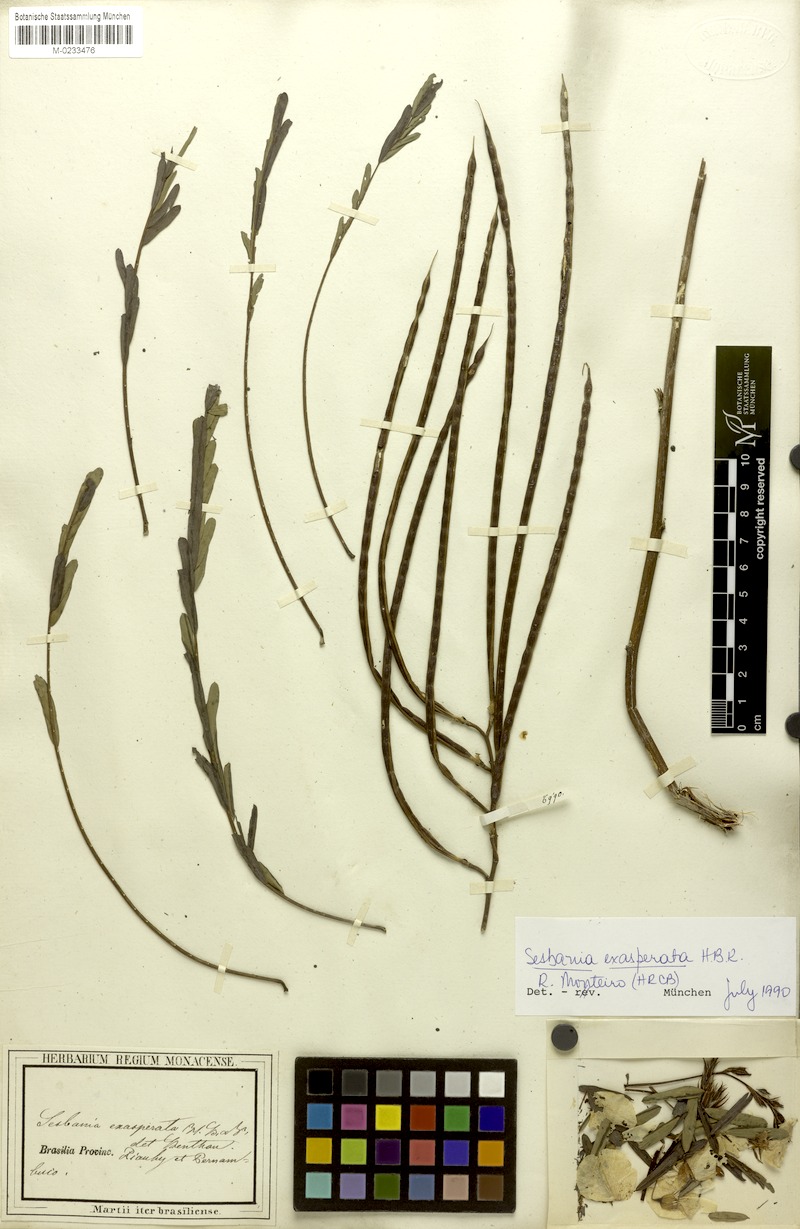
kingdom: Plantae
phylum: Tracheophyta
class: Magnoliopsida
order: Fabales
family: Fabaceae
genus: Sesbania
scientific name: Sesbania exasperata
